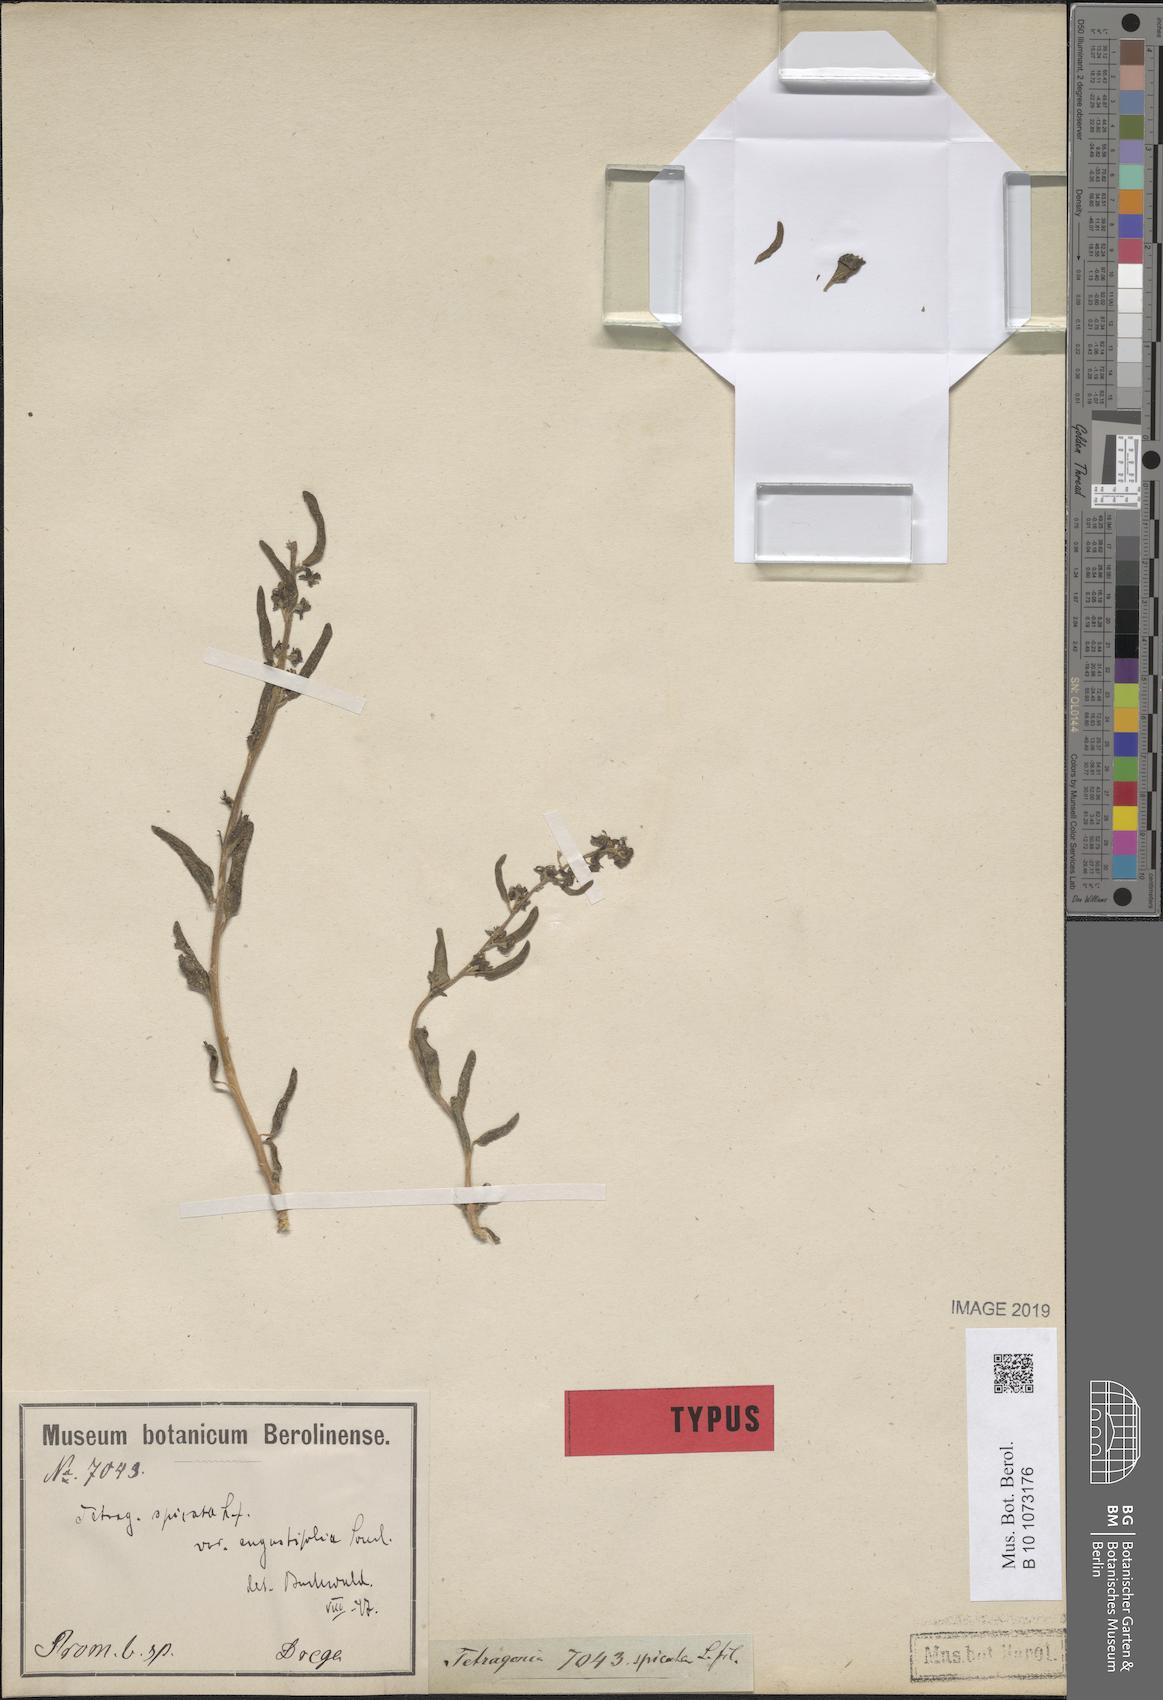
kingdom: Plantae
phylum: Tracheophyta
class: Magnoliopsida
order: Caryophyllales
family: Aizoaceae
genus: Tetragonia
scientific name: Tetragonia spicata
